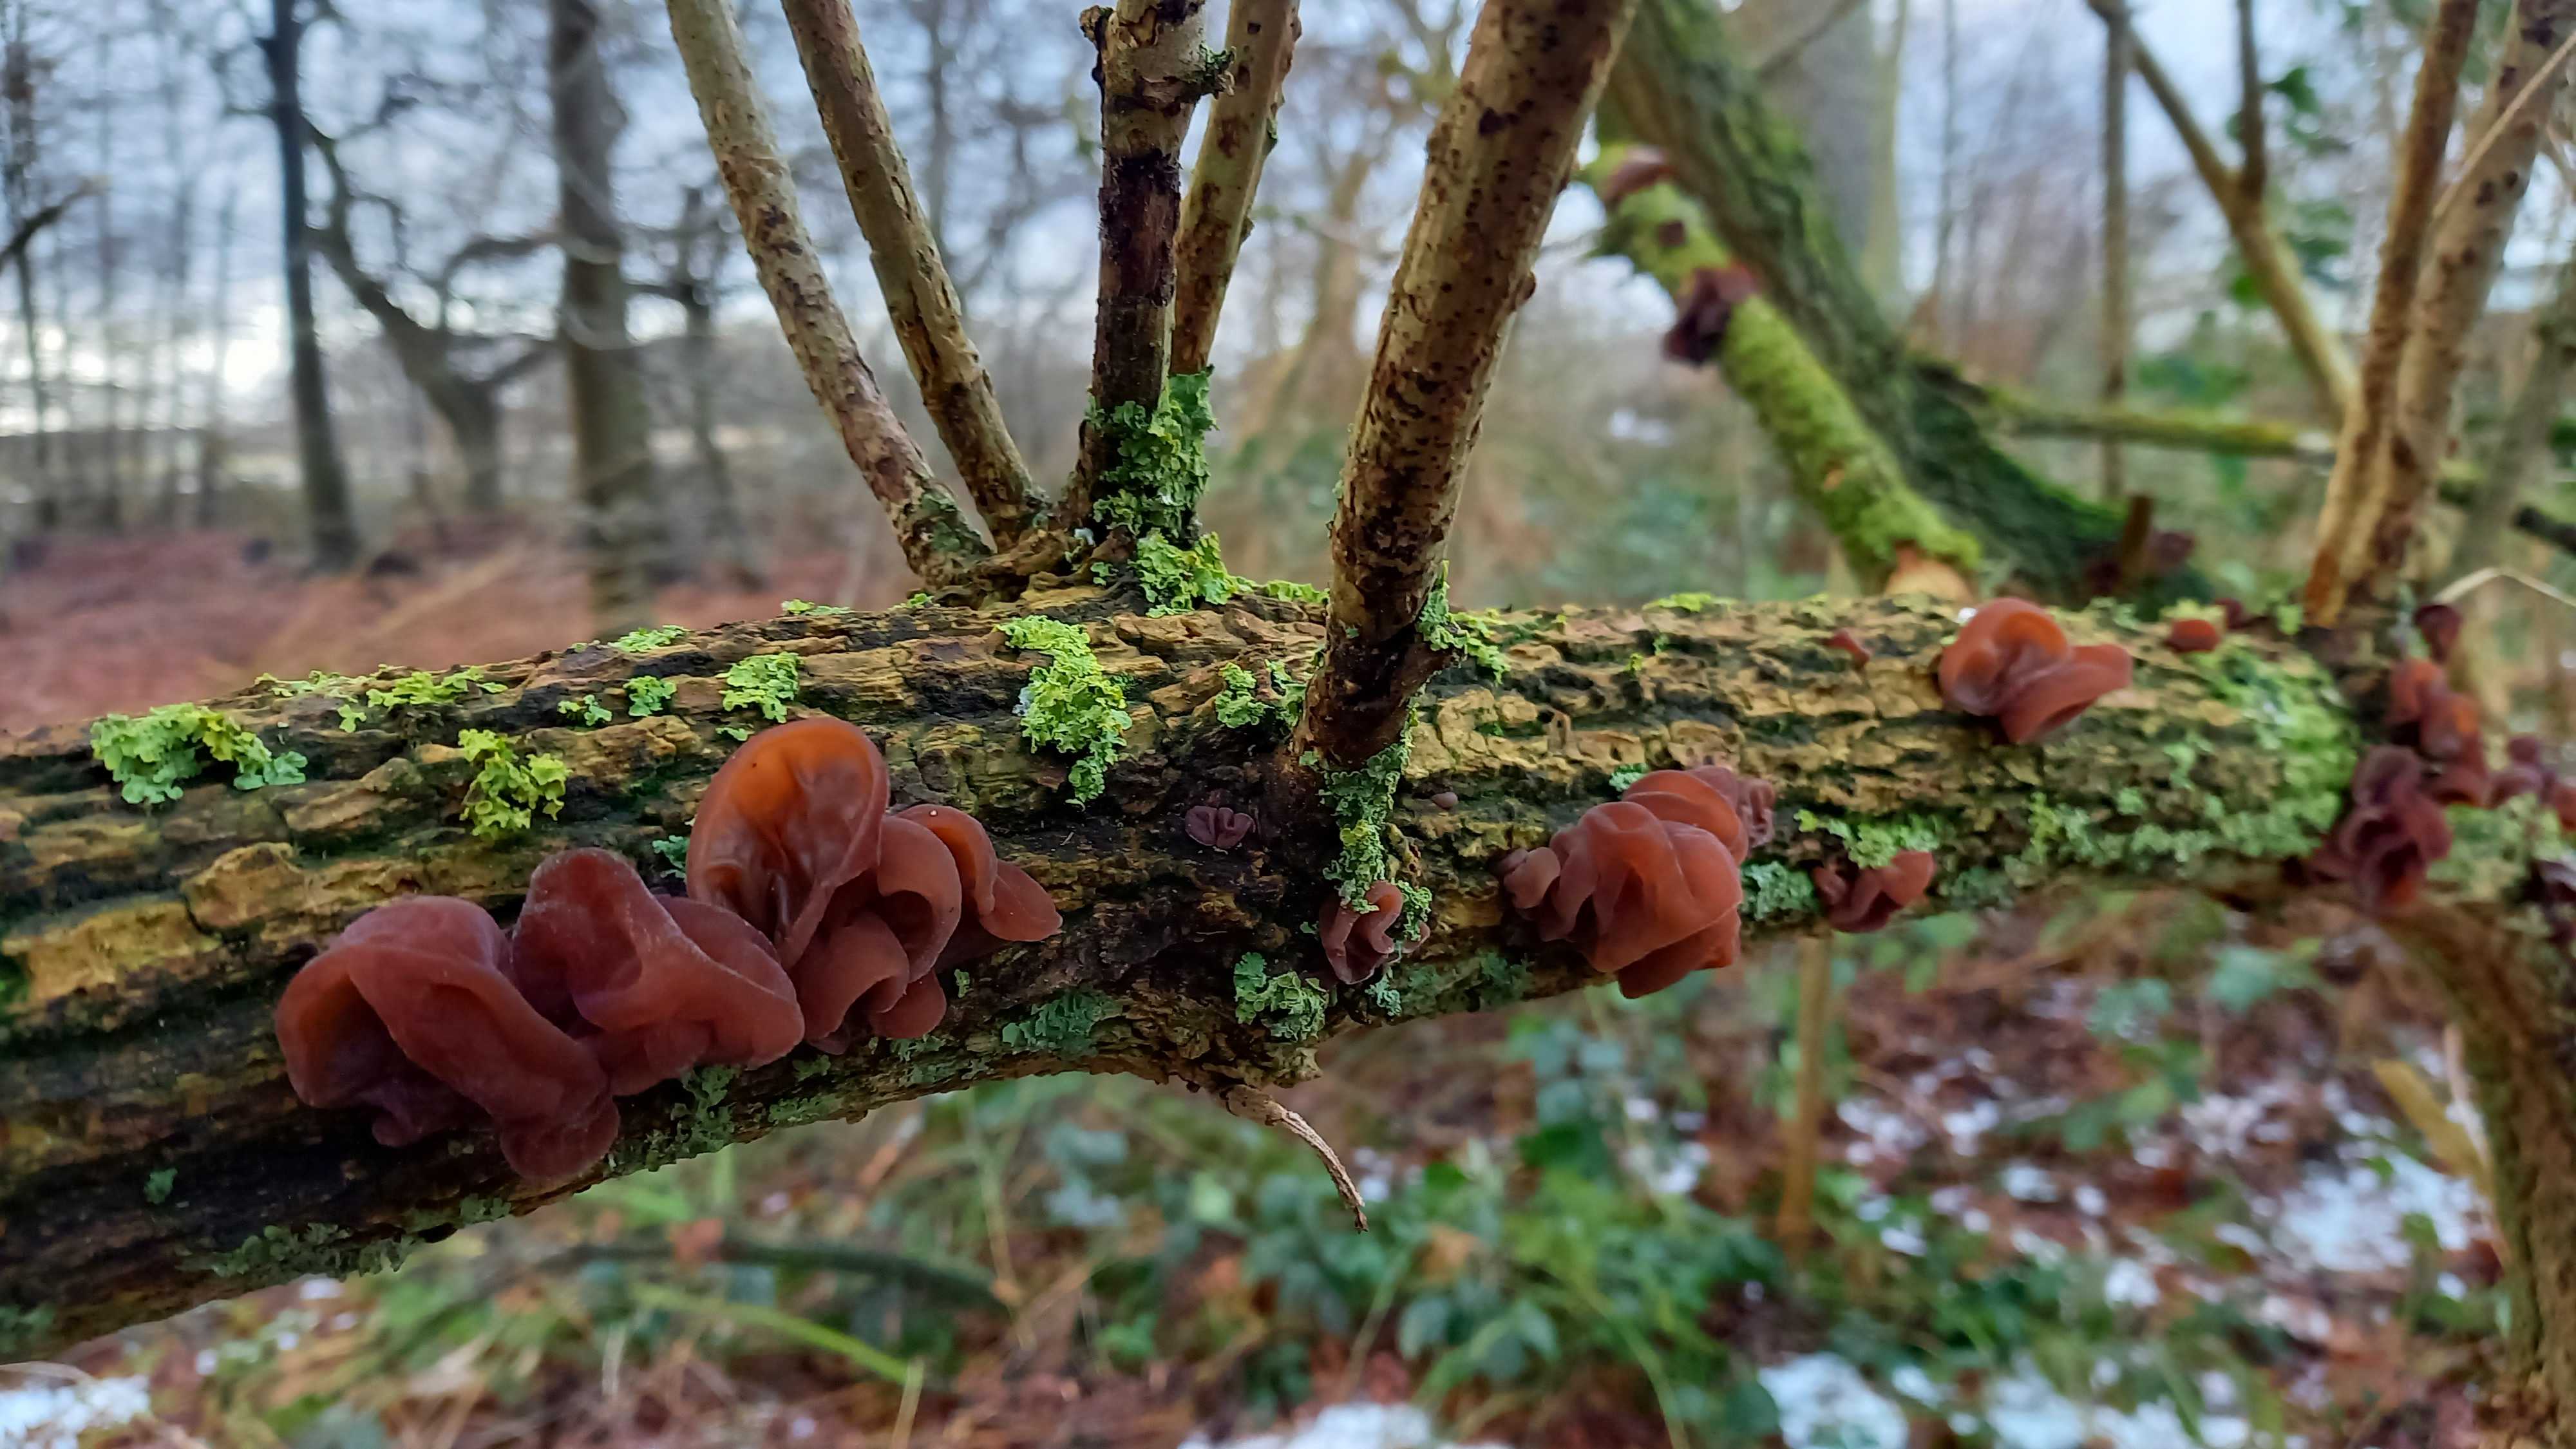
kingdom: Fungi
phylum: Basidiomycota
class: Agaricomycetes
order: Auriculariales
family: Auriculariaceae
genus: Auricularia
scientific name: Auricularia auricula-judae
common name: almindelig judasøre
